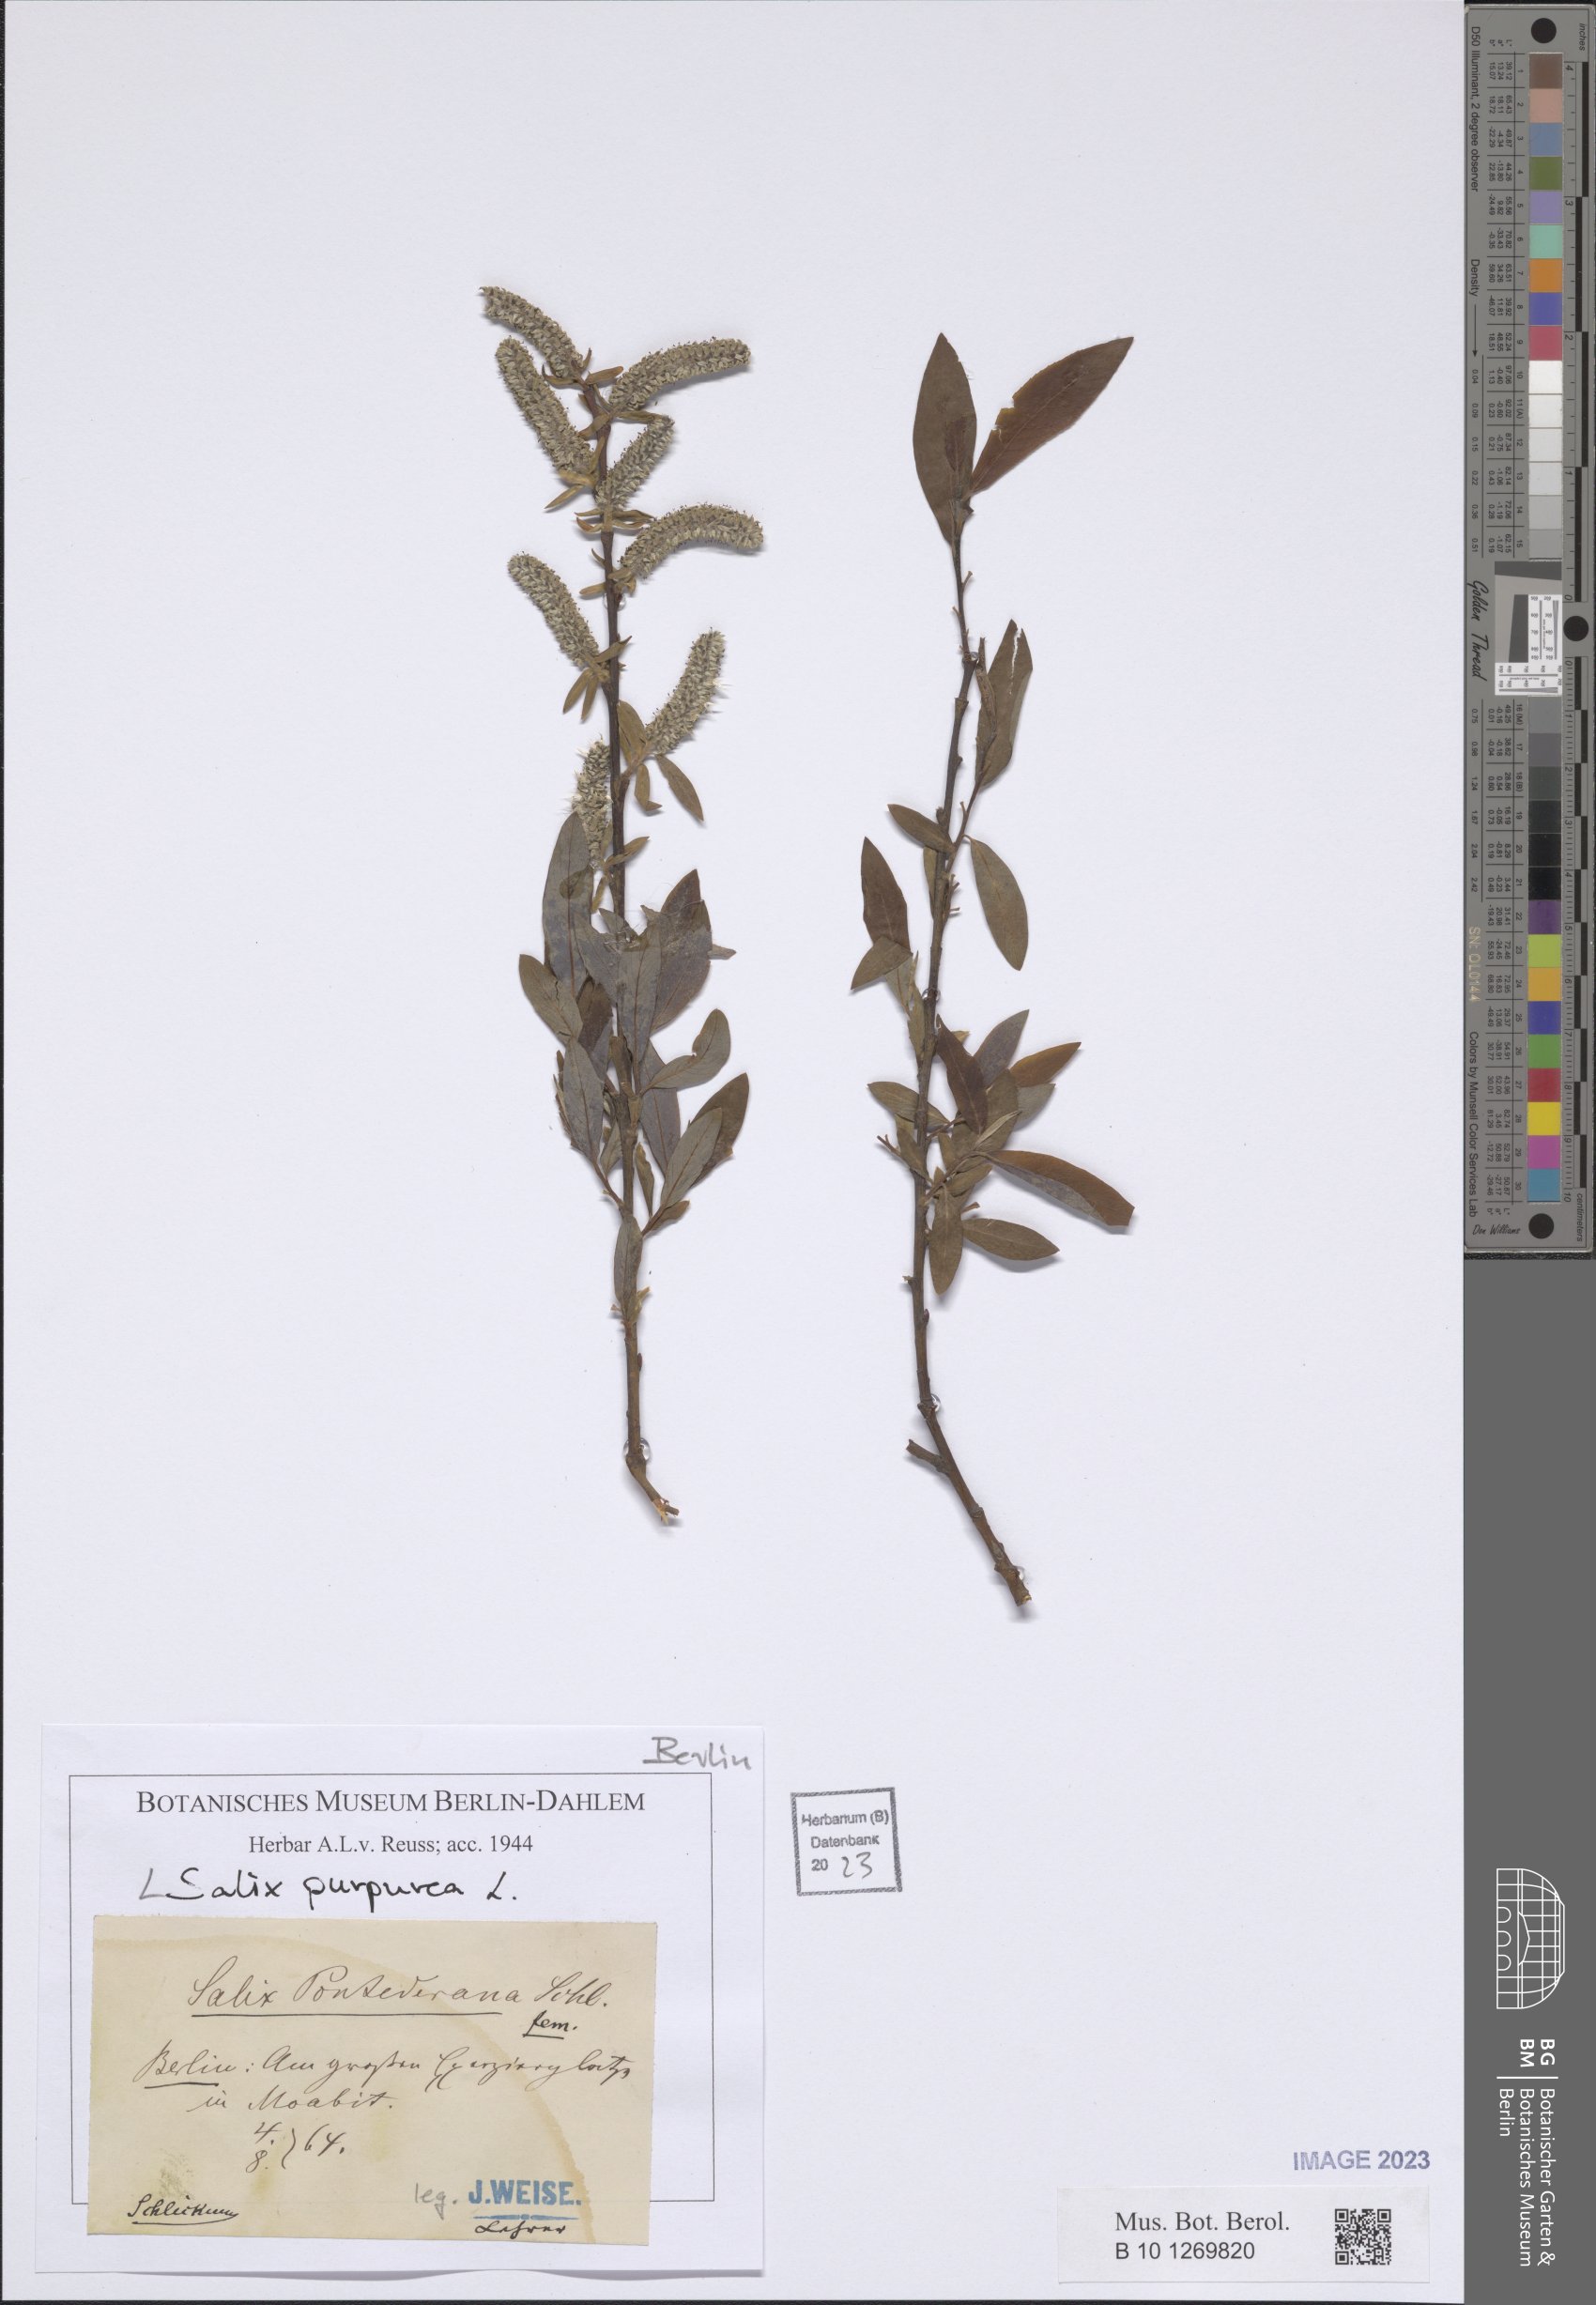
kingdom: Plantae
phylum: Tracheophyta
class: Magnoliopsida
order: Malpighiales
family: Salicaceae
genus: Salix
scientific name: Salix purpurea
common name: Purple willow
